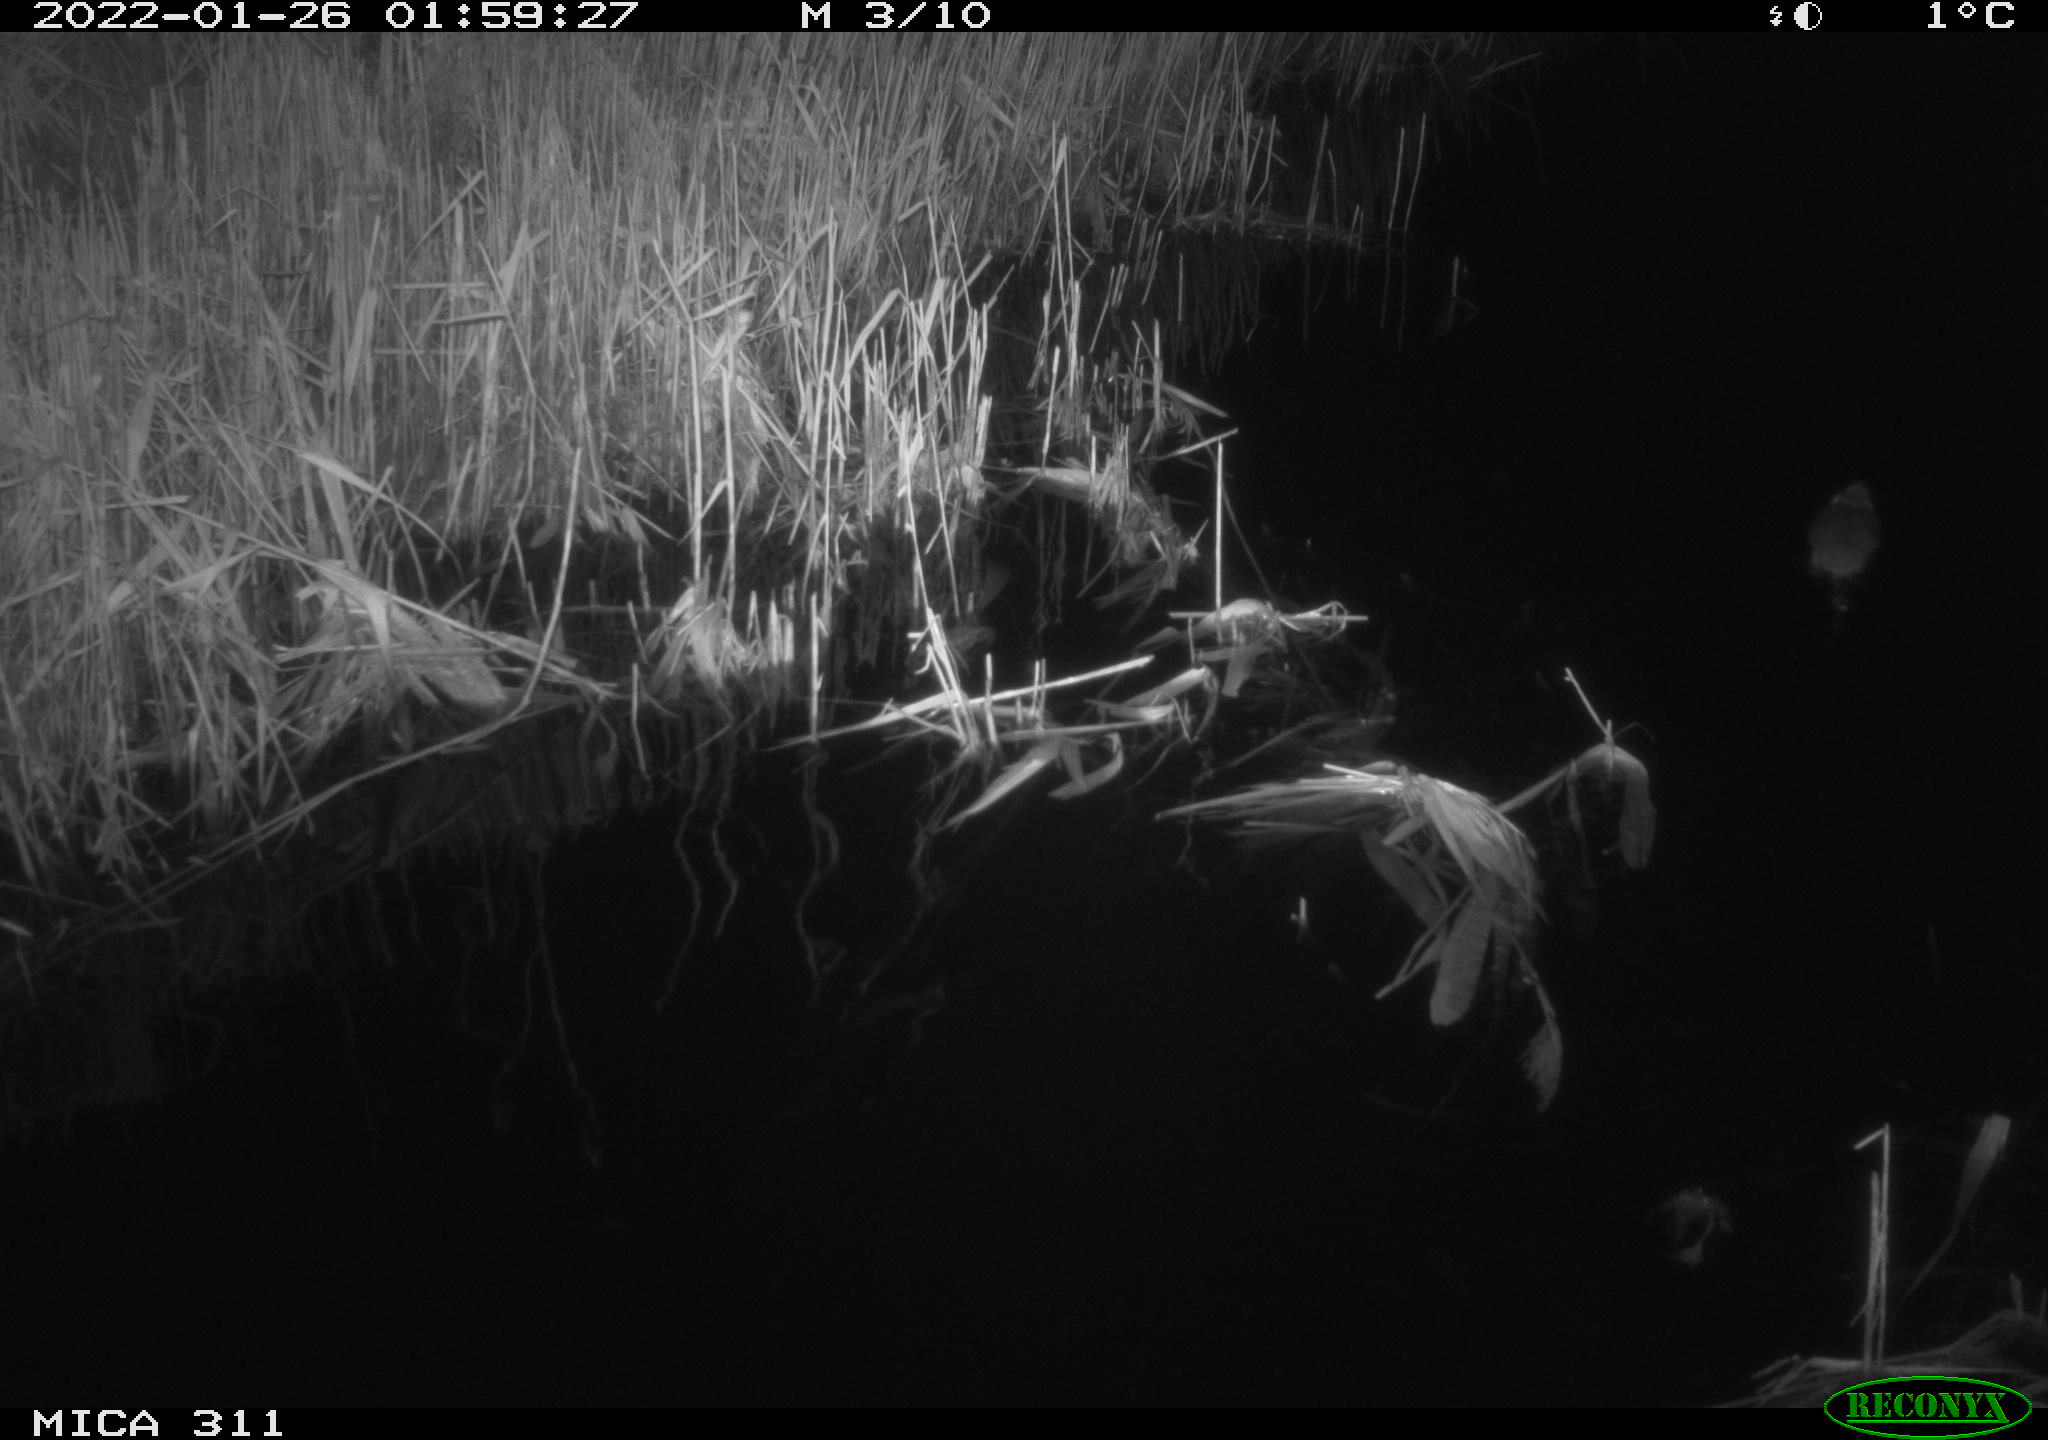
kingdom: Animalia
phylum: Chordata
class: Mammalia
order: Rodentia
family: Muridae
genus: Rattus
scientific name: Rattus norvegicus
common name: Brown rat
